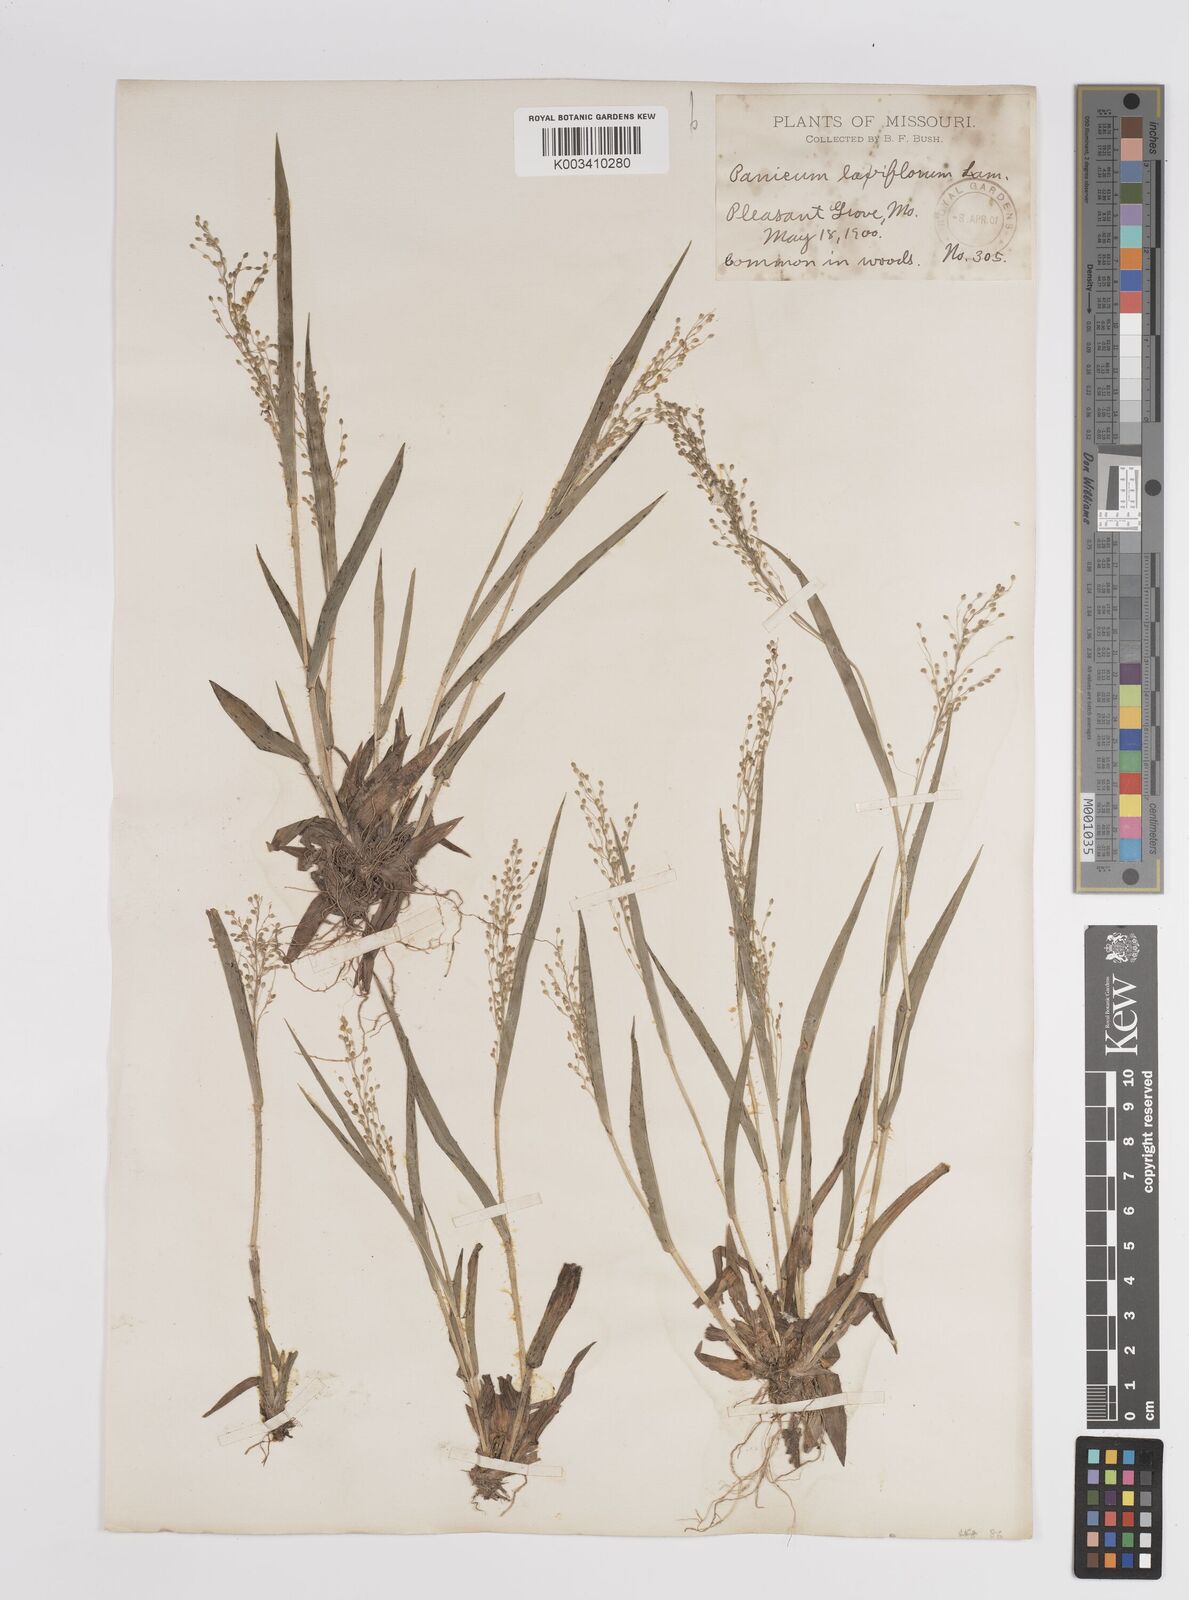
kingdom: Plantae
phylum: Tracheophyta
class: Liliopsida
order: Poales
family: Poaceae
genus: Dichanthelium
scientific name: Dichanthelium laxiflorum
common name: Soft-tuft panic grass
